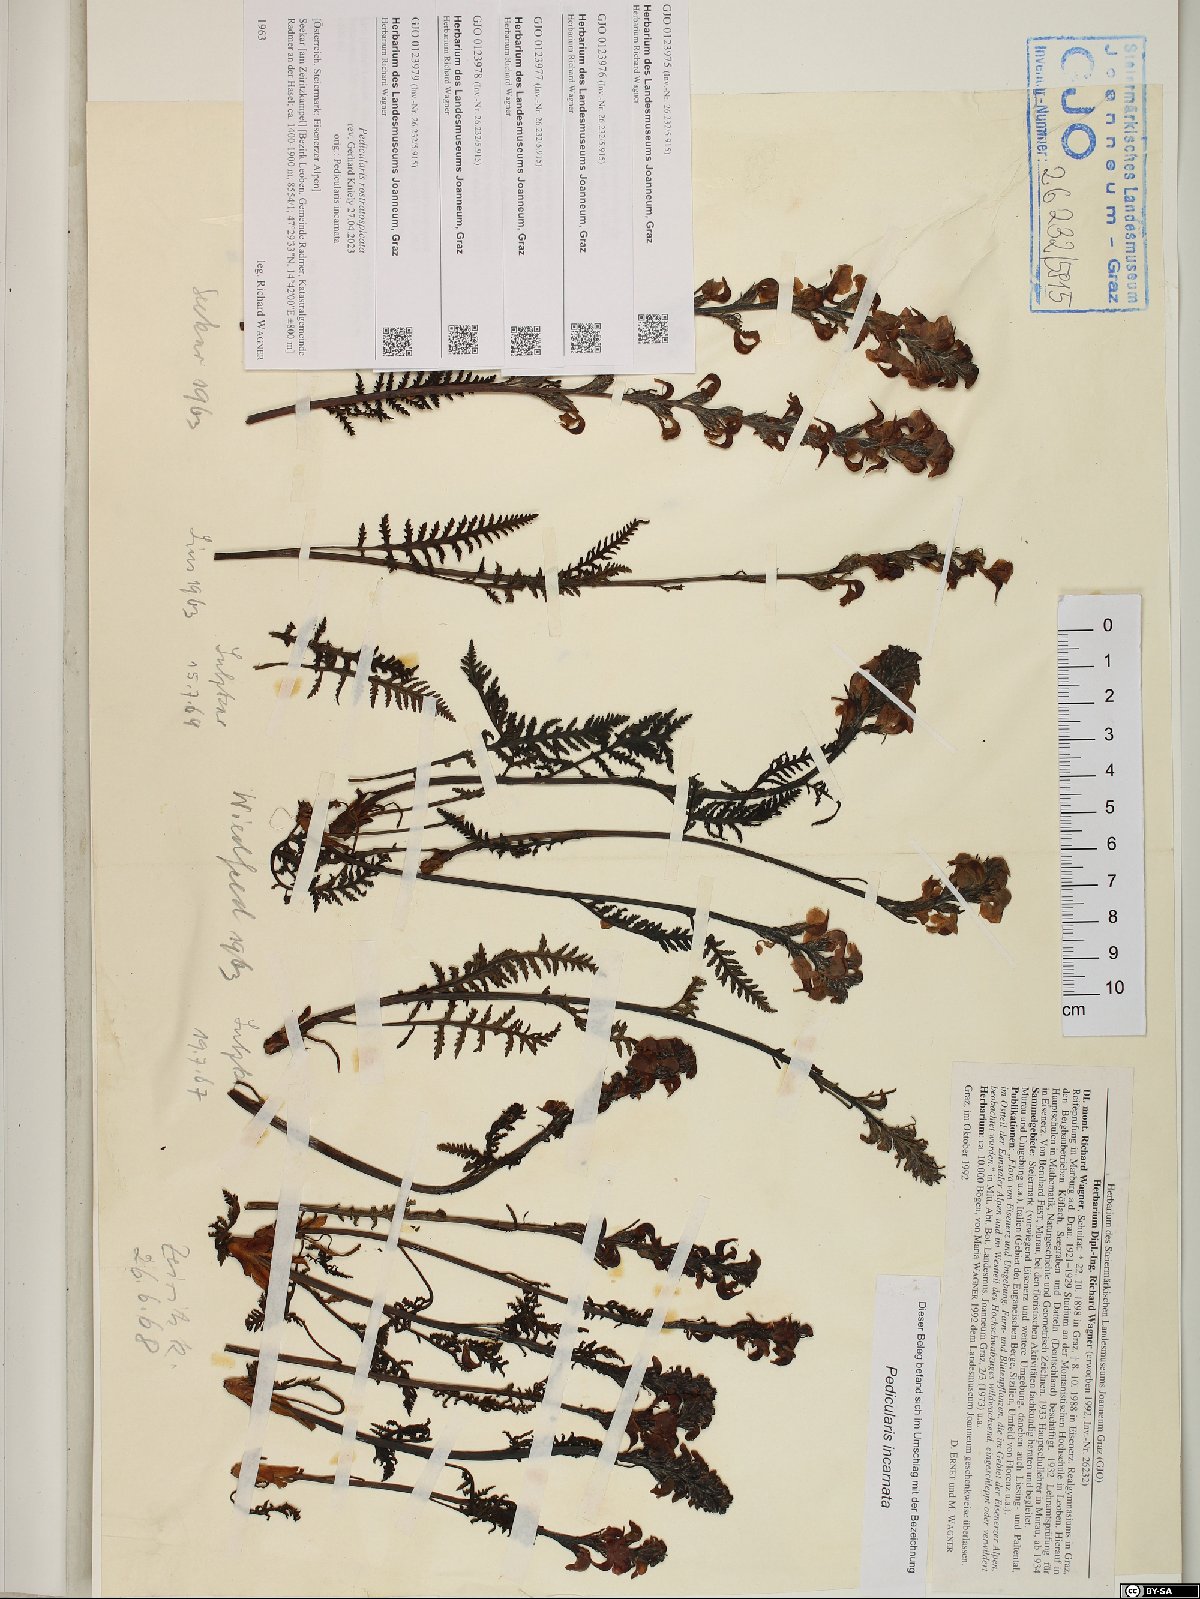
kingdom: Plantae
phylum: Tracheophyta
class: Magnoliopsida
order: Lamiales
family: Orobanchaceae
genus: Pedicularis
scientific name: Pedicularis rostratospicata
